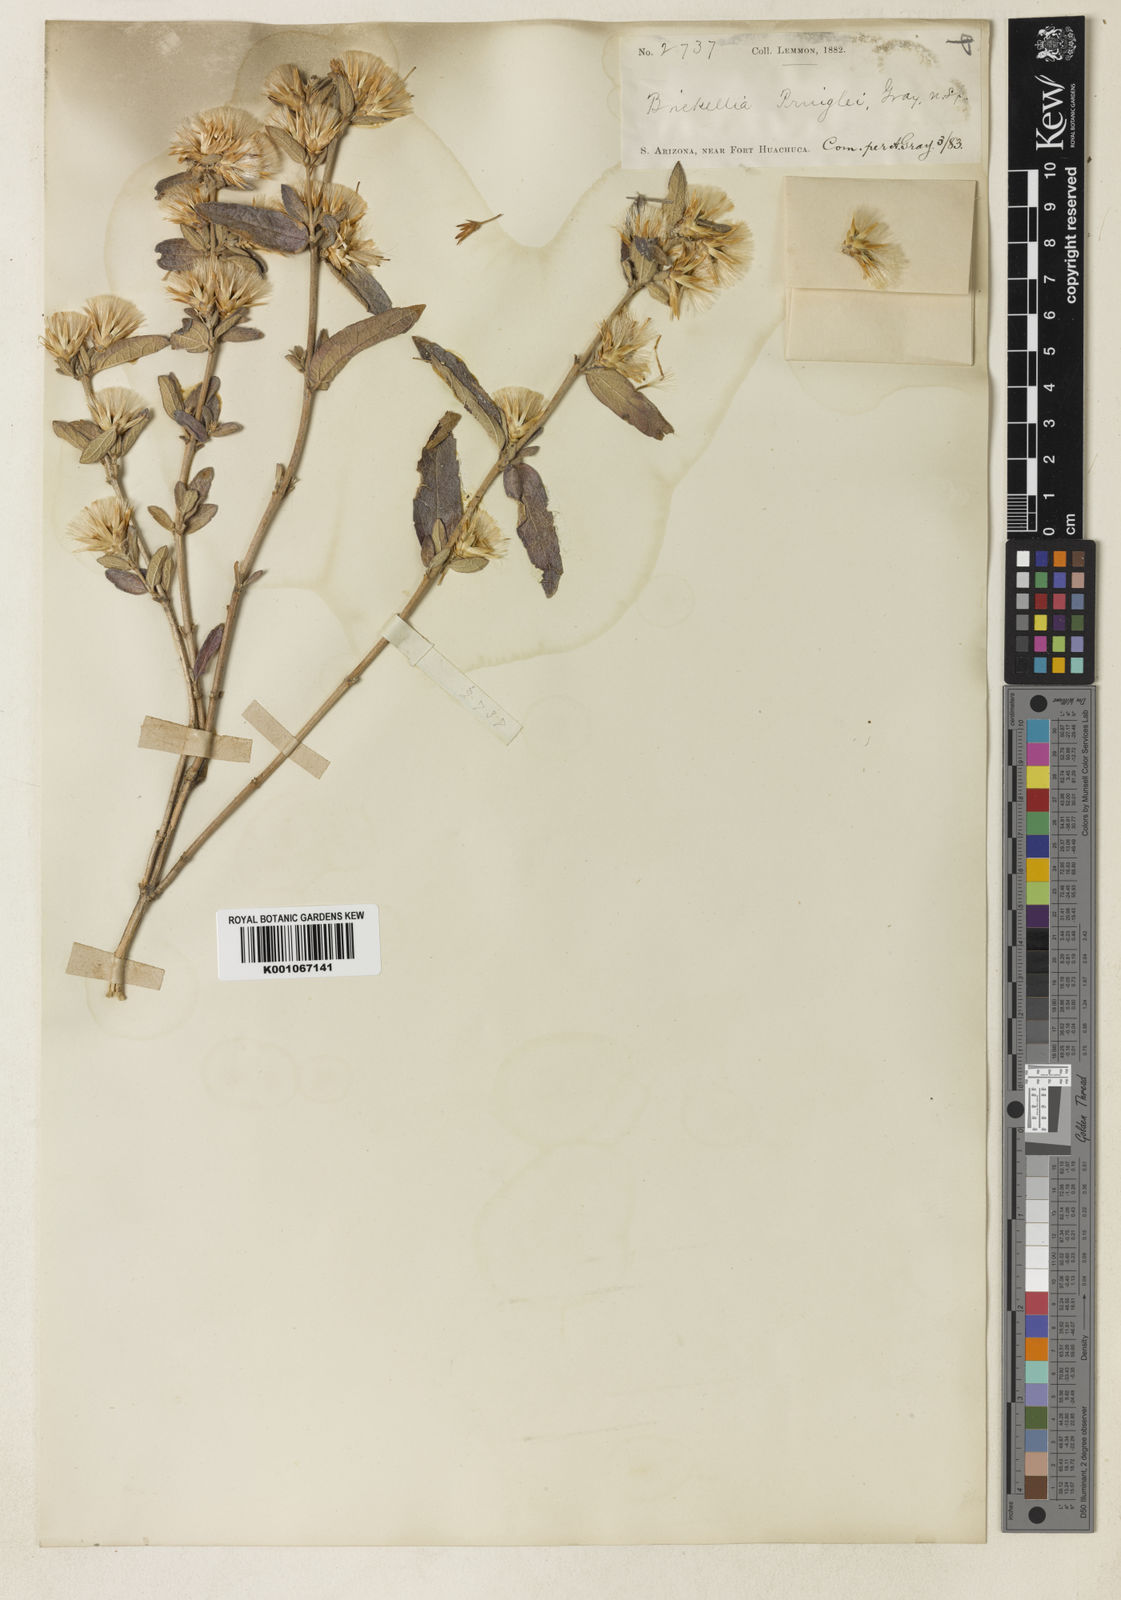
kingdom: Plantae
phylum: Tracheophyta
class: Magnoliopsida
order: Asterales
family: Asteraceae
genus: Brickellia
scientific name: Brickellia venosa
